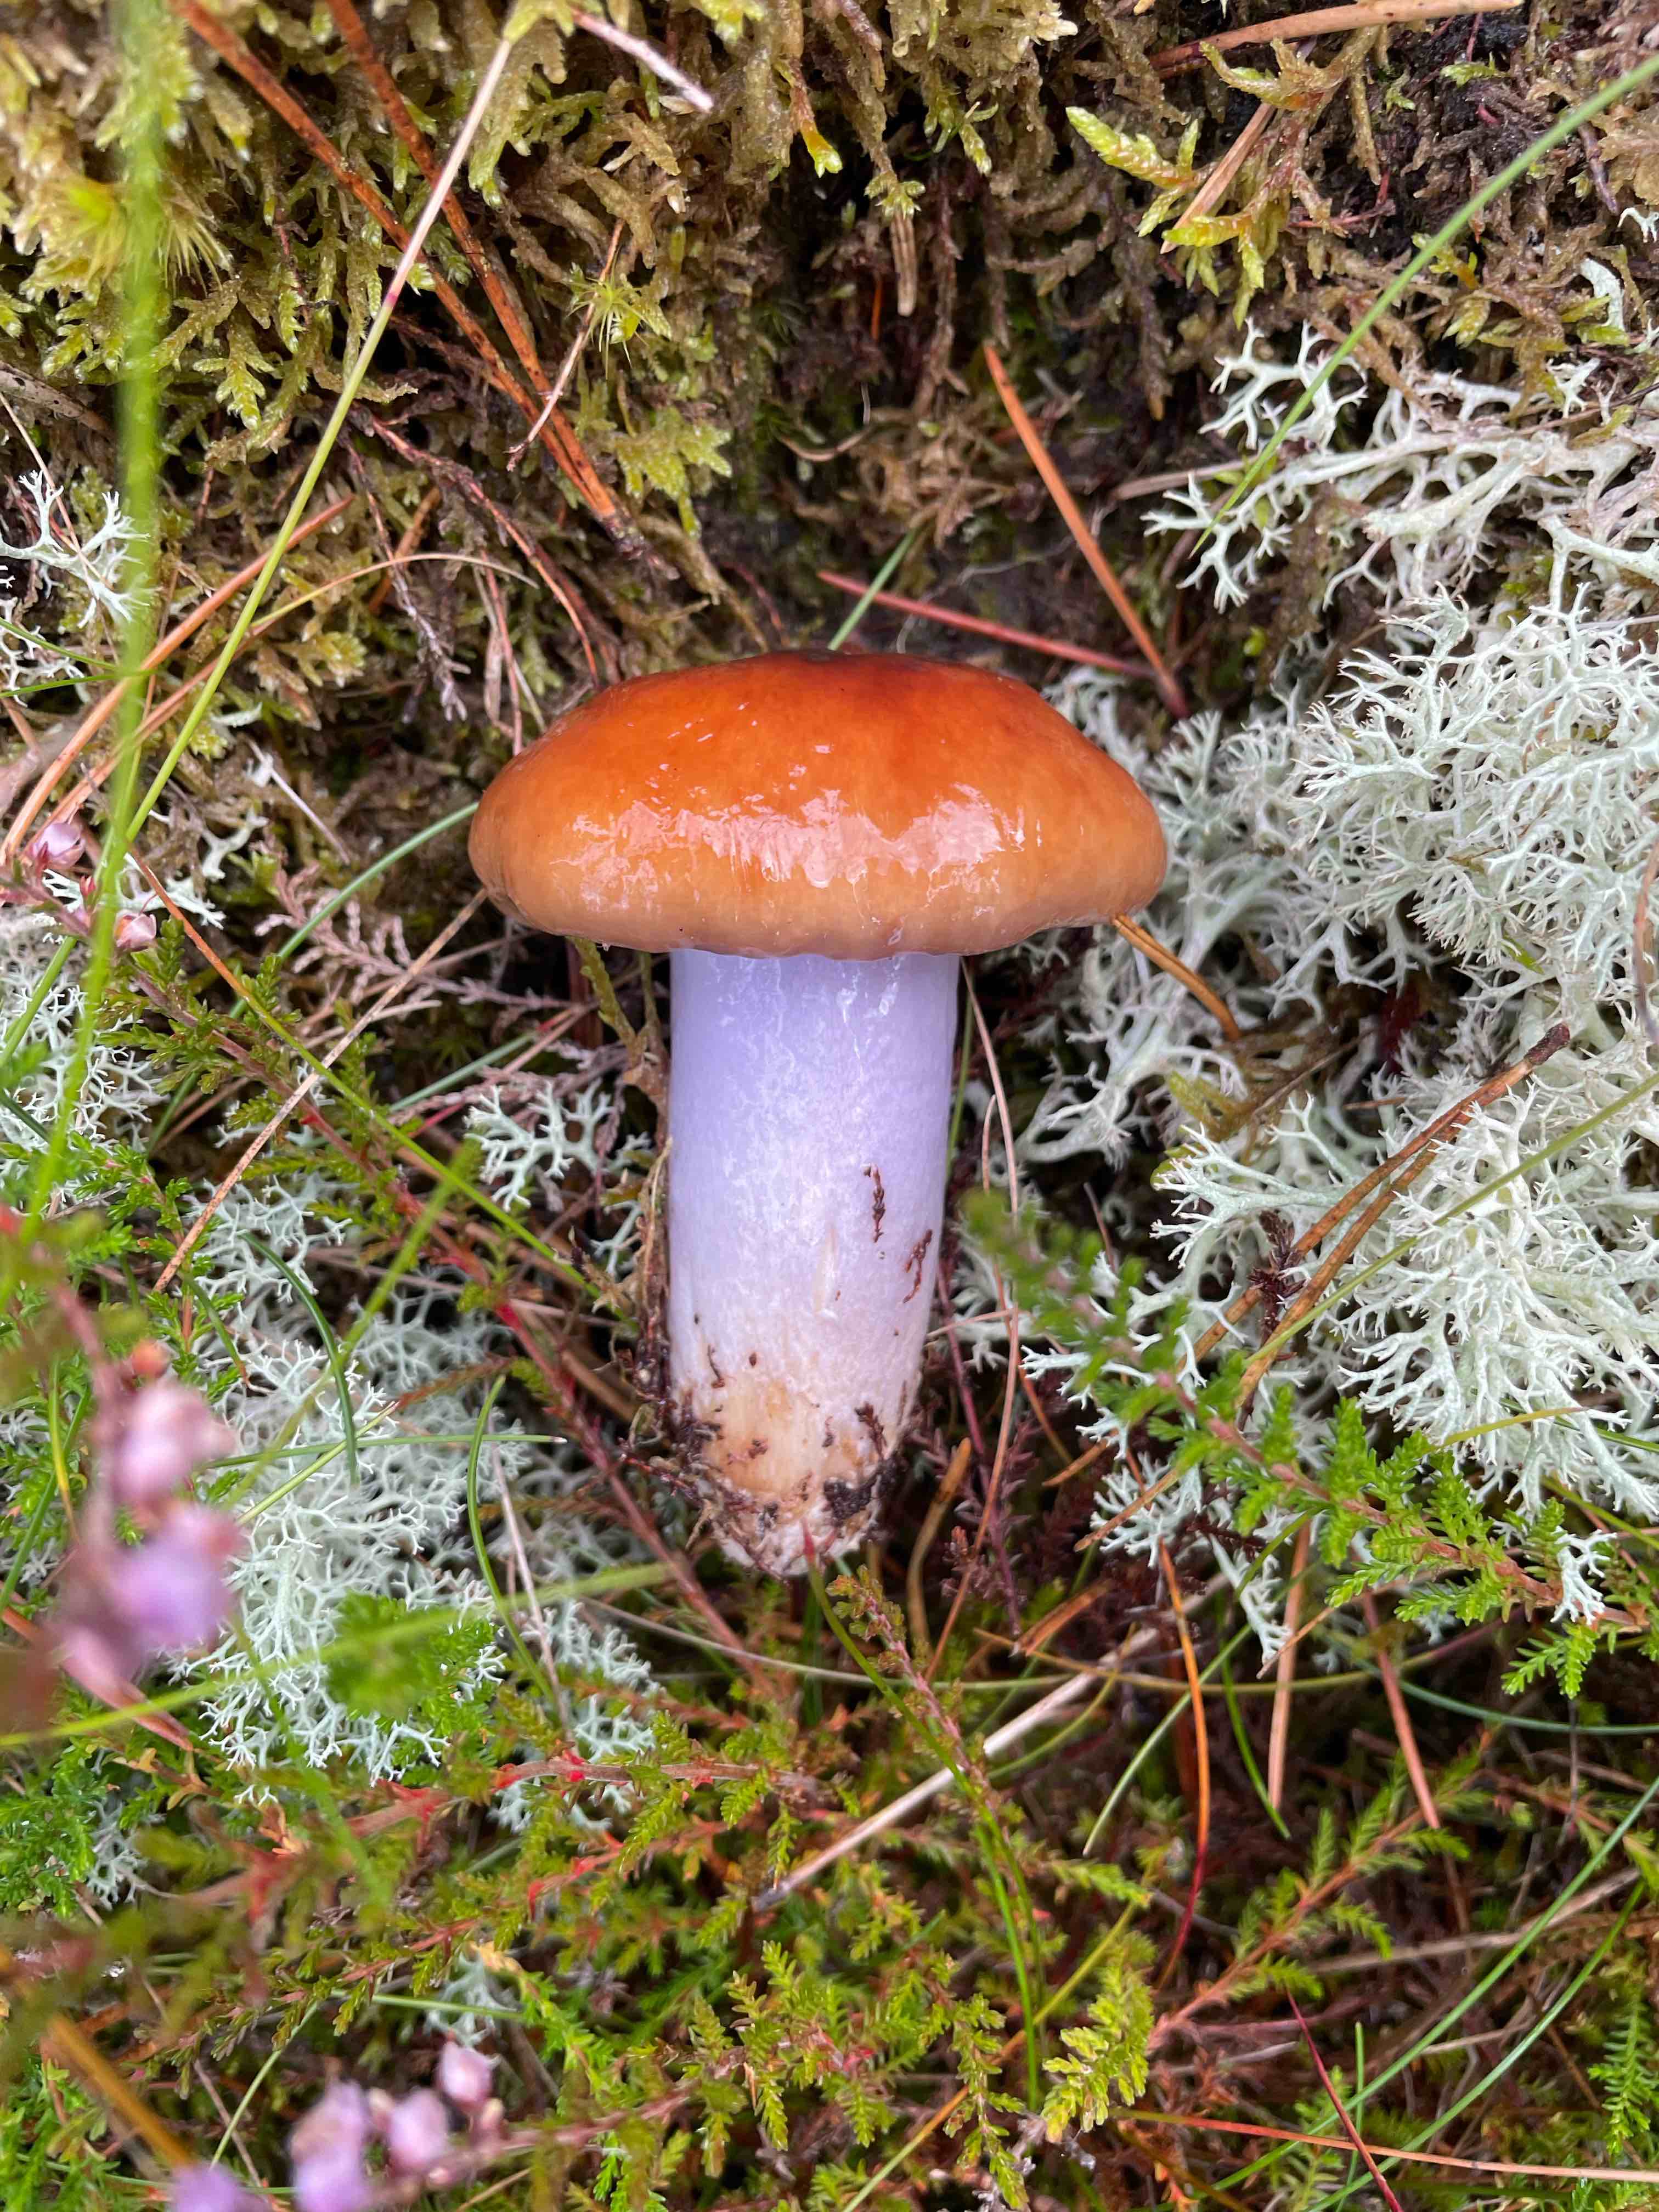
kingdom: Fungi
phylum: Basidiomycota
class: Agaricomycetes
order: Agaricales
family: Cortinariaceae
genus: Cortinarius
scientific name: Cortinarius
